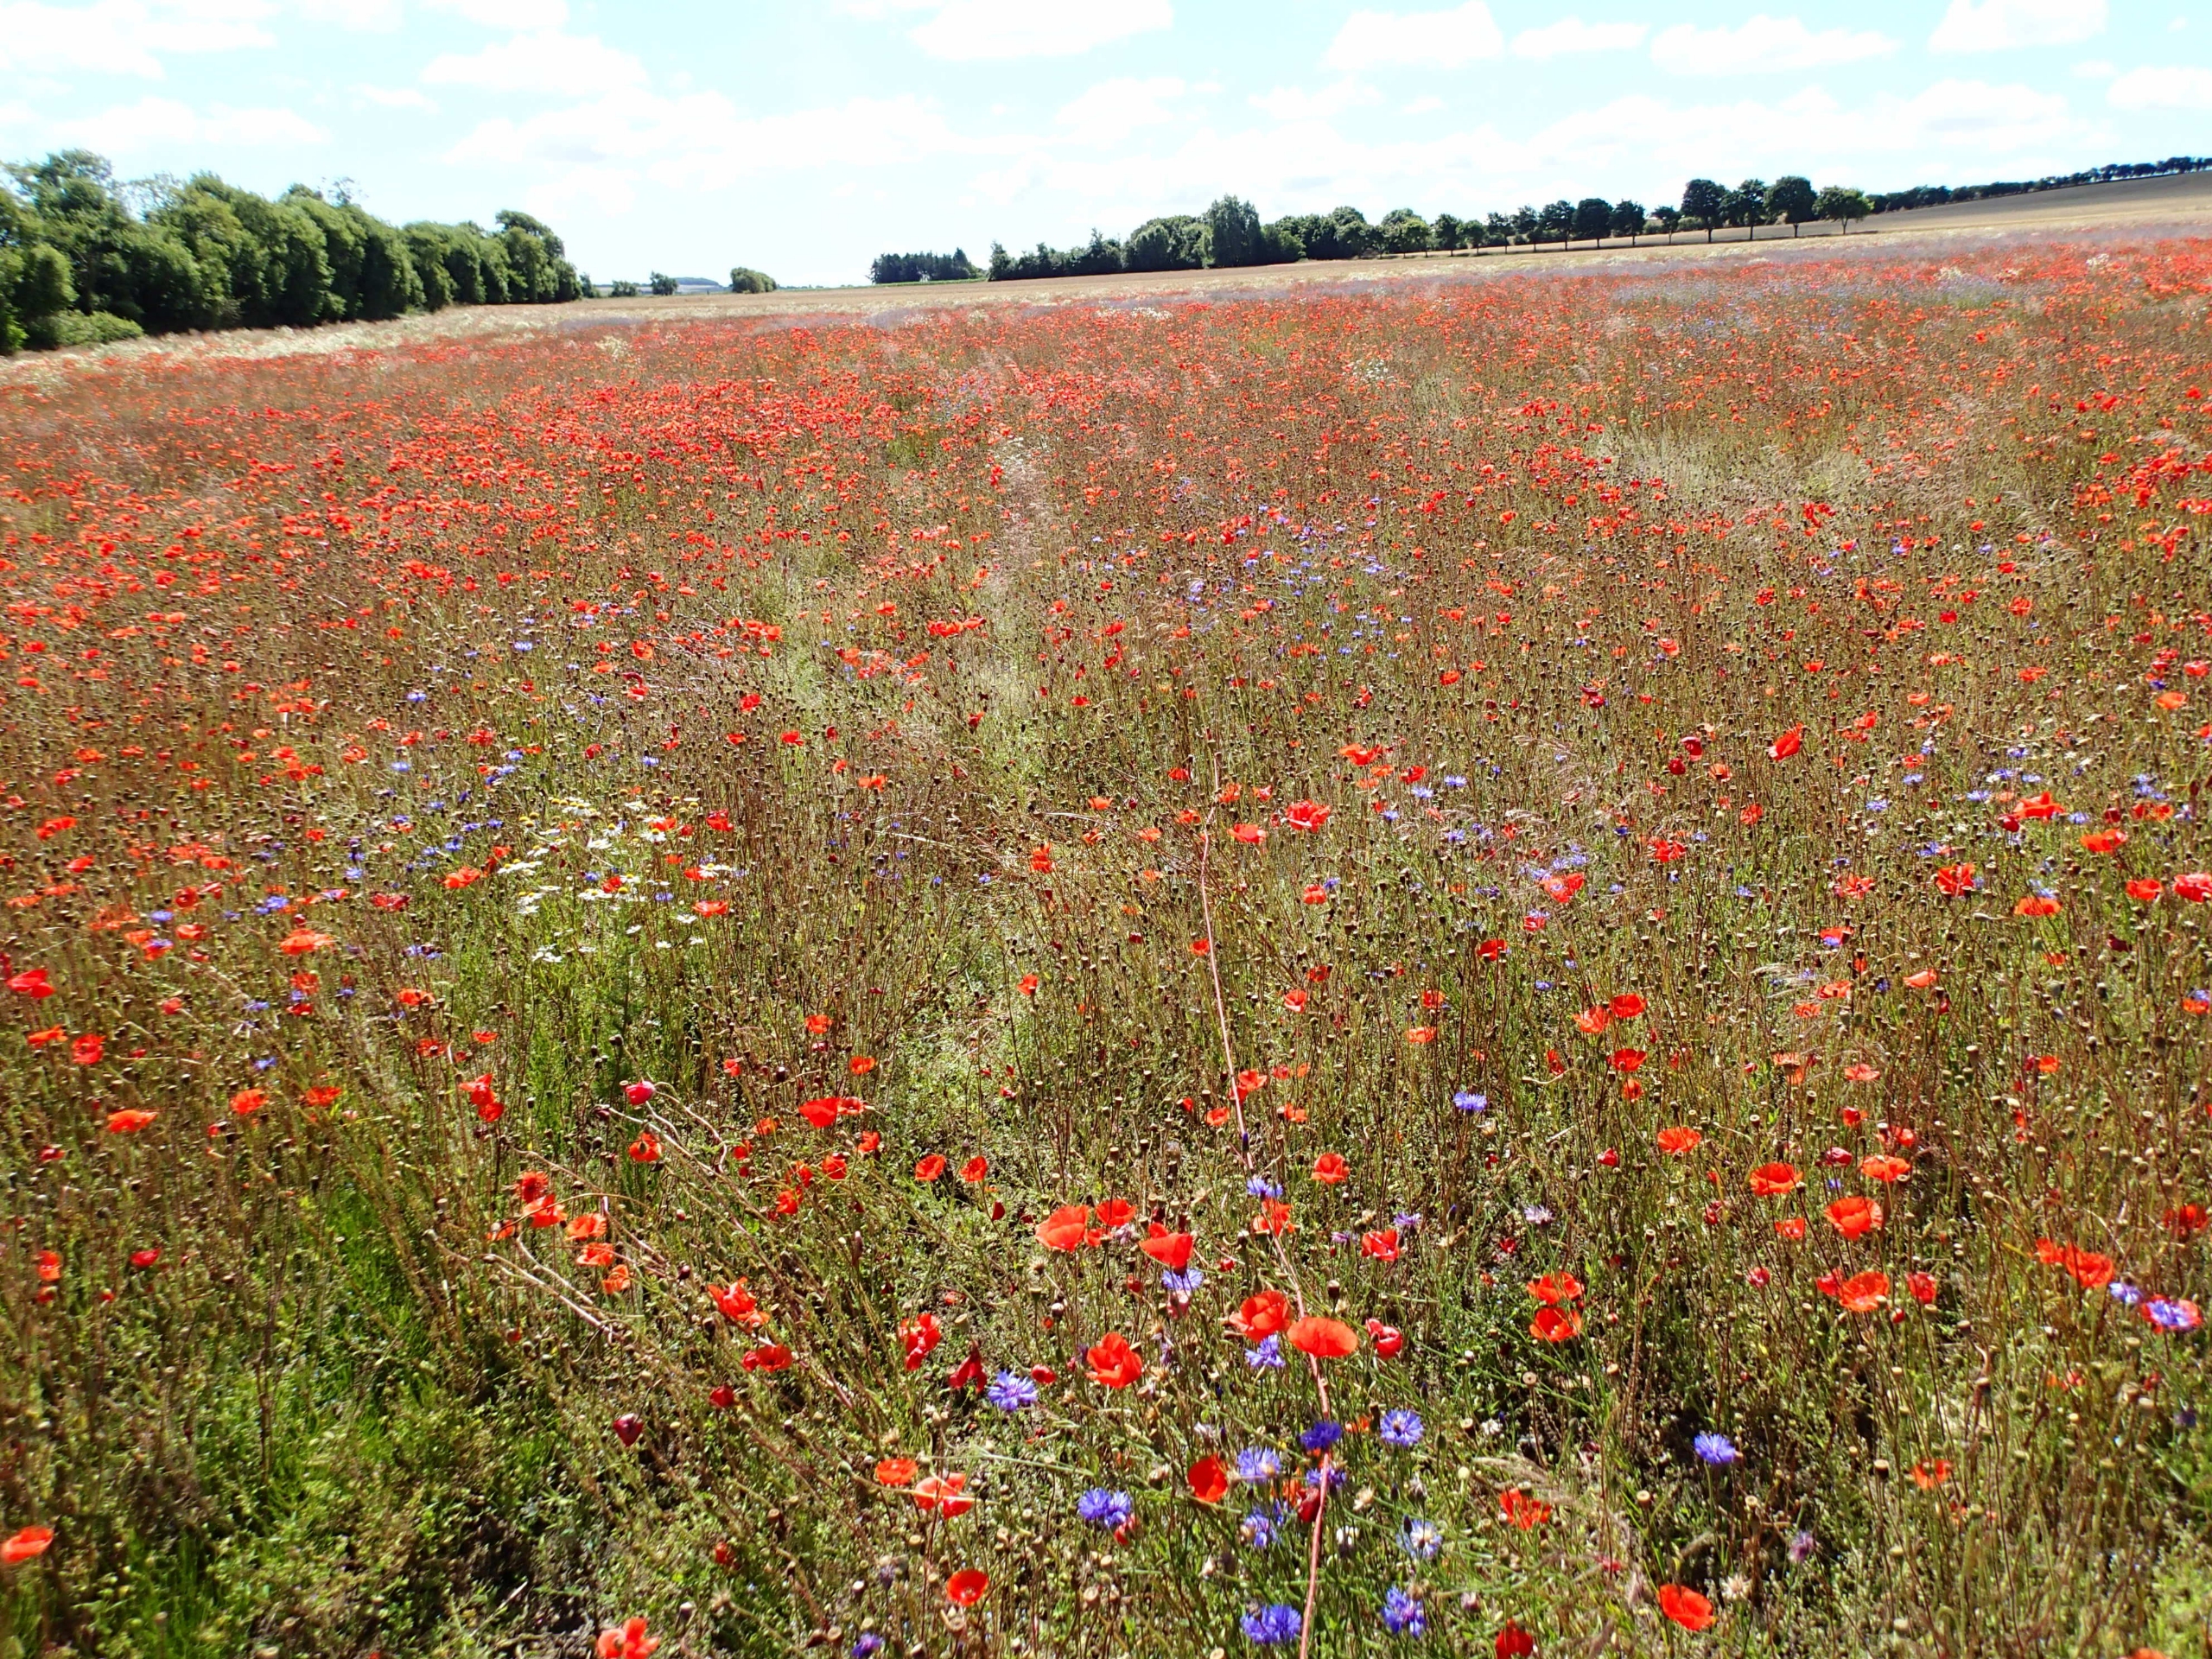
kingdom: Plantae
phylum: Tracheophyta
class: Magnoliopsida
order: Ranunculales
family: Papaveraceae
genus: Papaver
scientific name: Papaver rhoeas
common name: Korn-valmue
